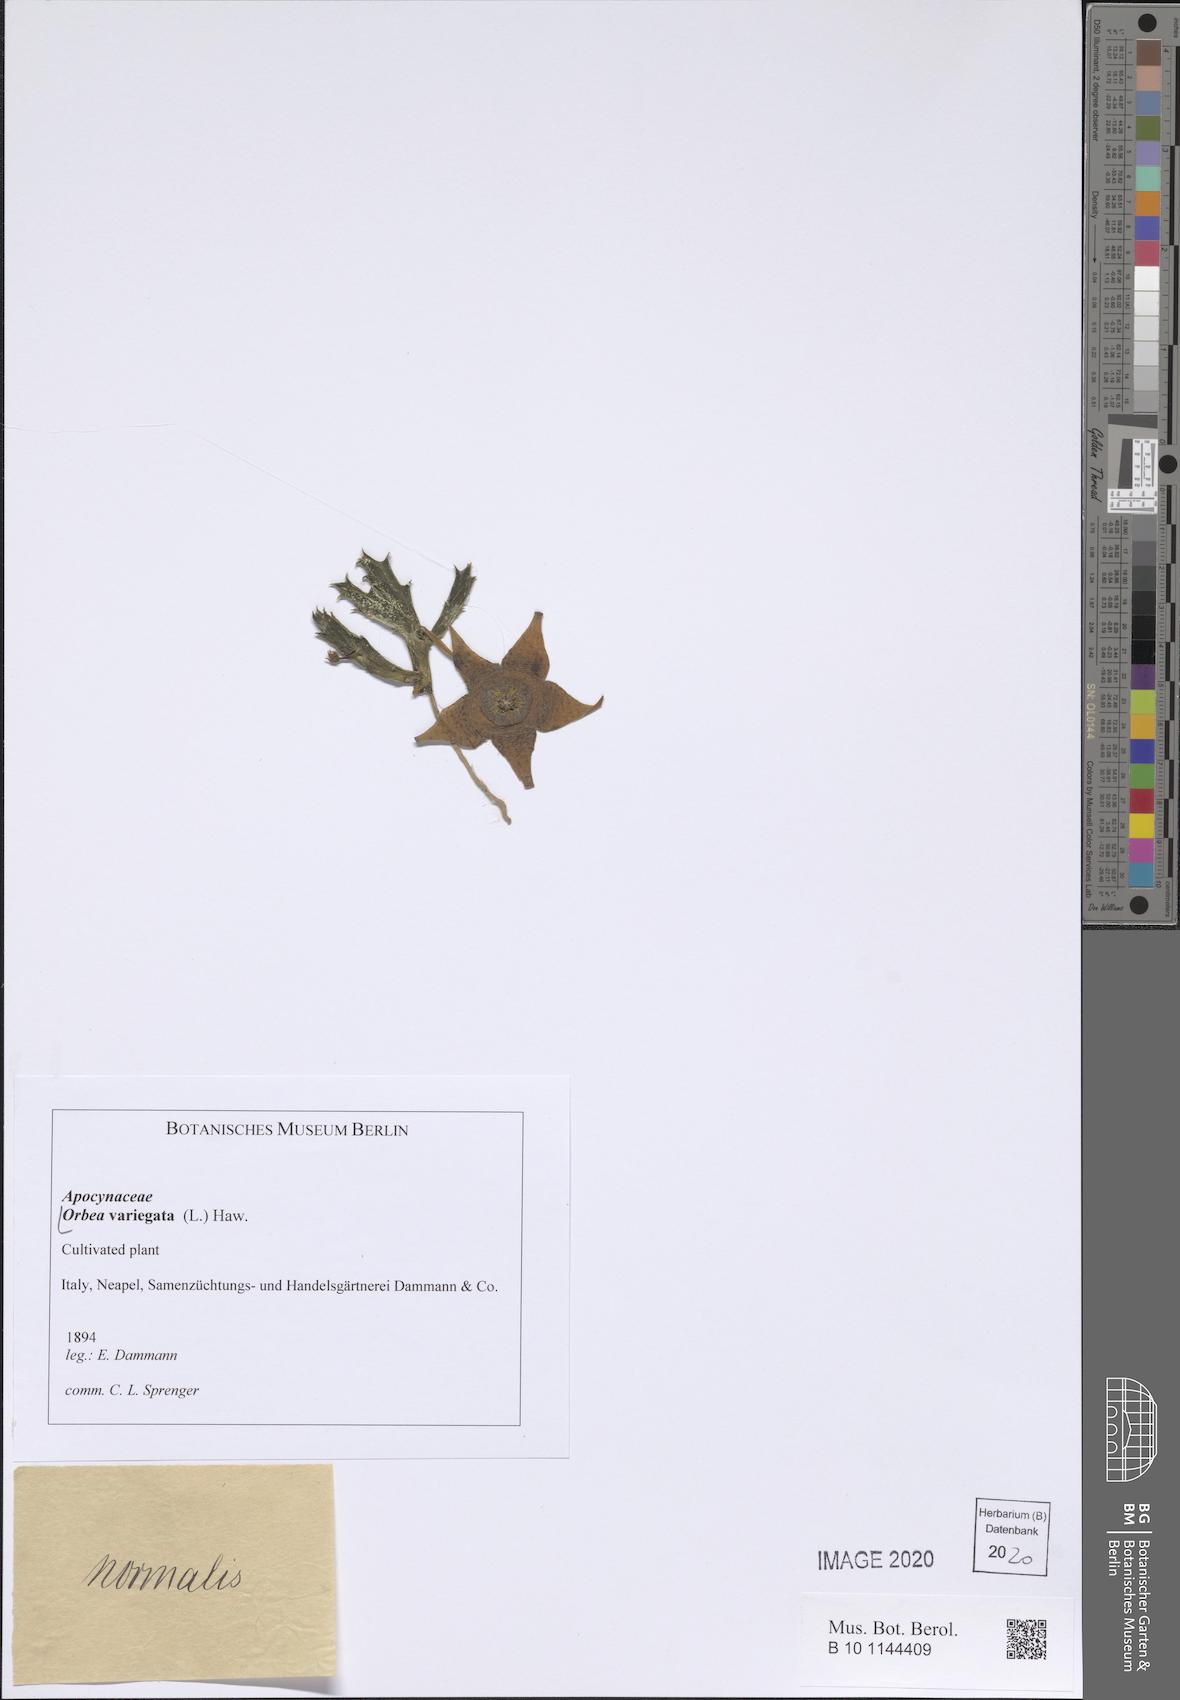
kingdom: Plantae
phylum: Tracheophyta
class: Magnoliopsida
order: Gentianales
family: Apocynaceae
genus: Ceropegia
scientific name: Ceropegia mixta
